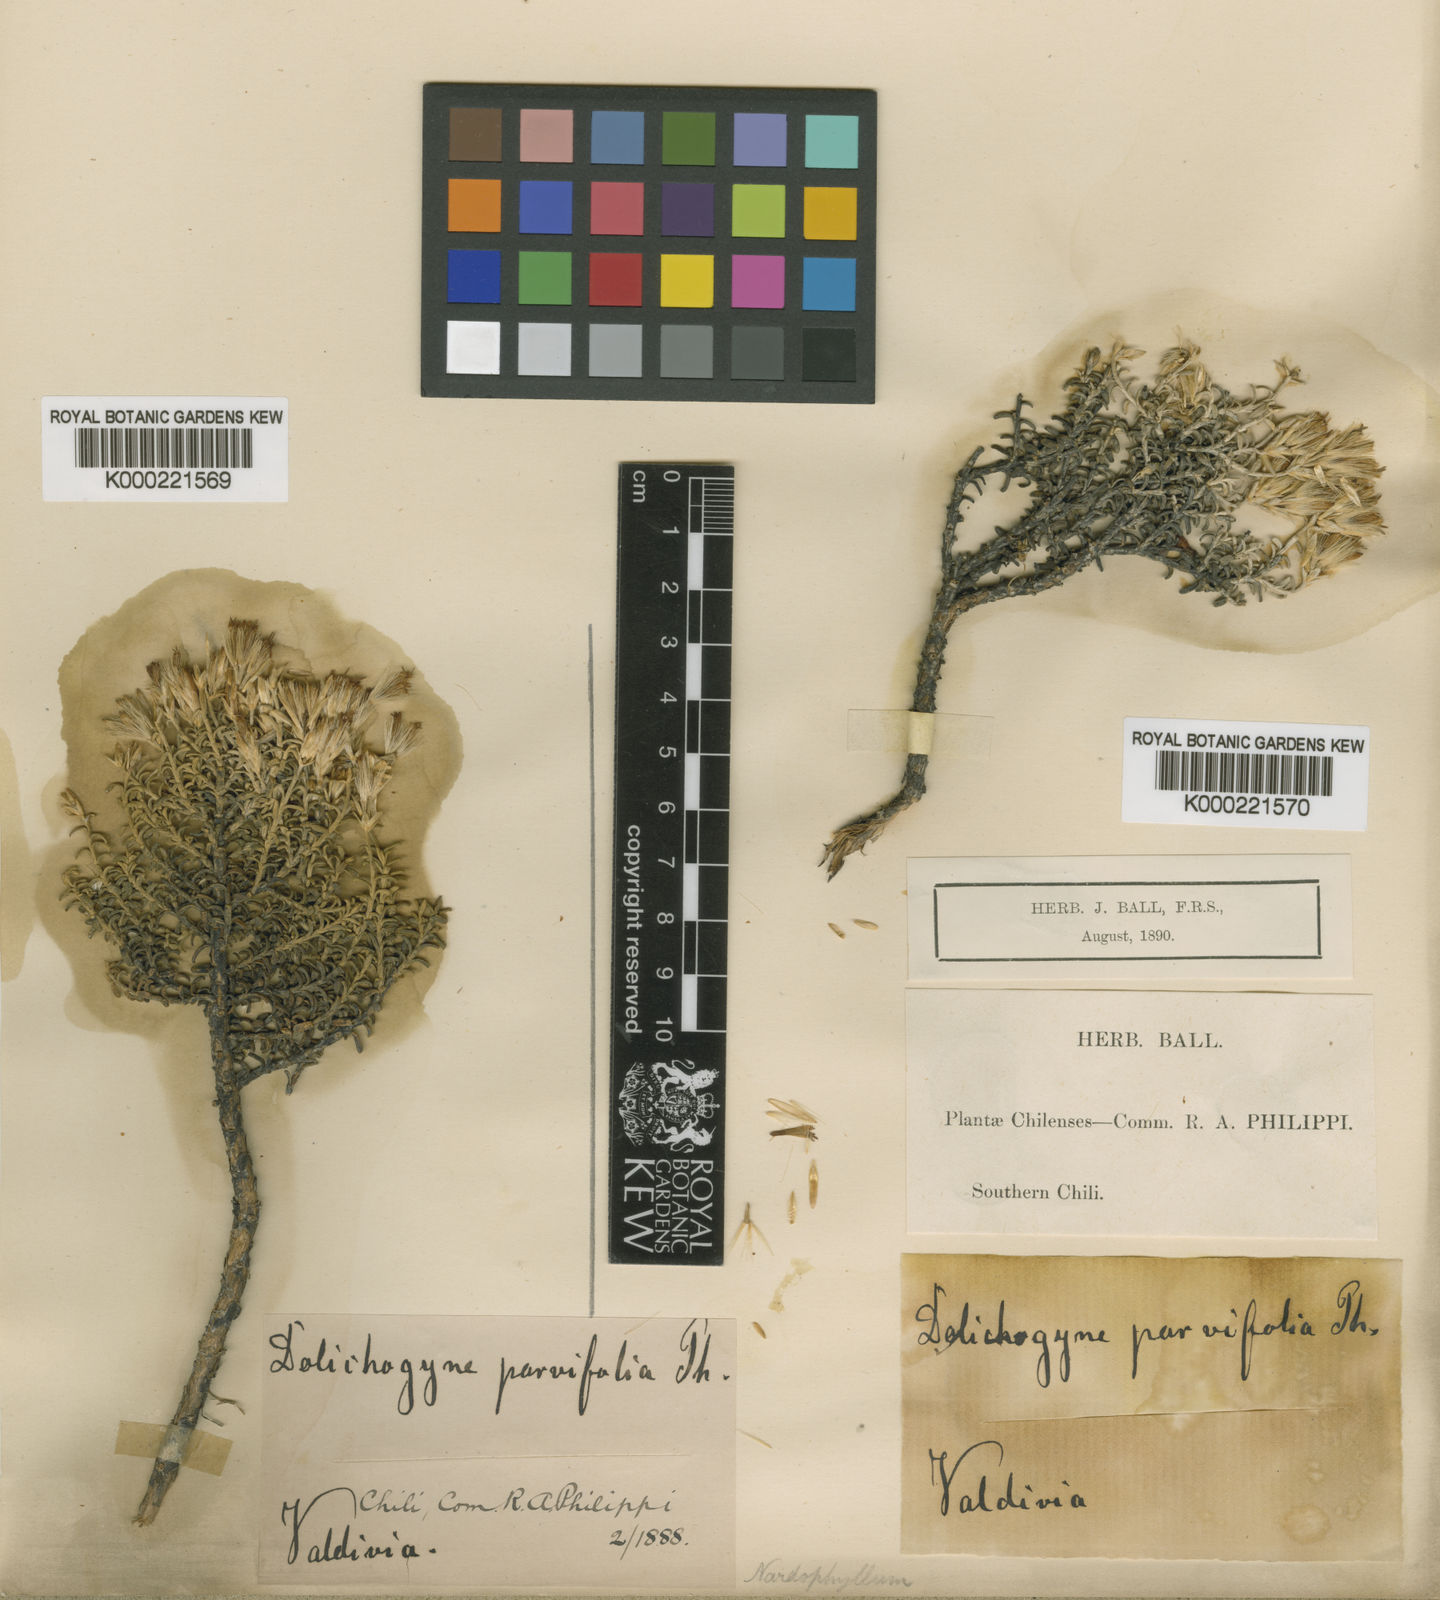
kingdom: Plantae
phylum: Tracheophyta
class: Magnoliopsida
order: Asterales
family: Asteraceae
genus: Nardophyllum
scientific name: Nardophyllum bryoides
